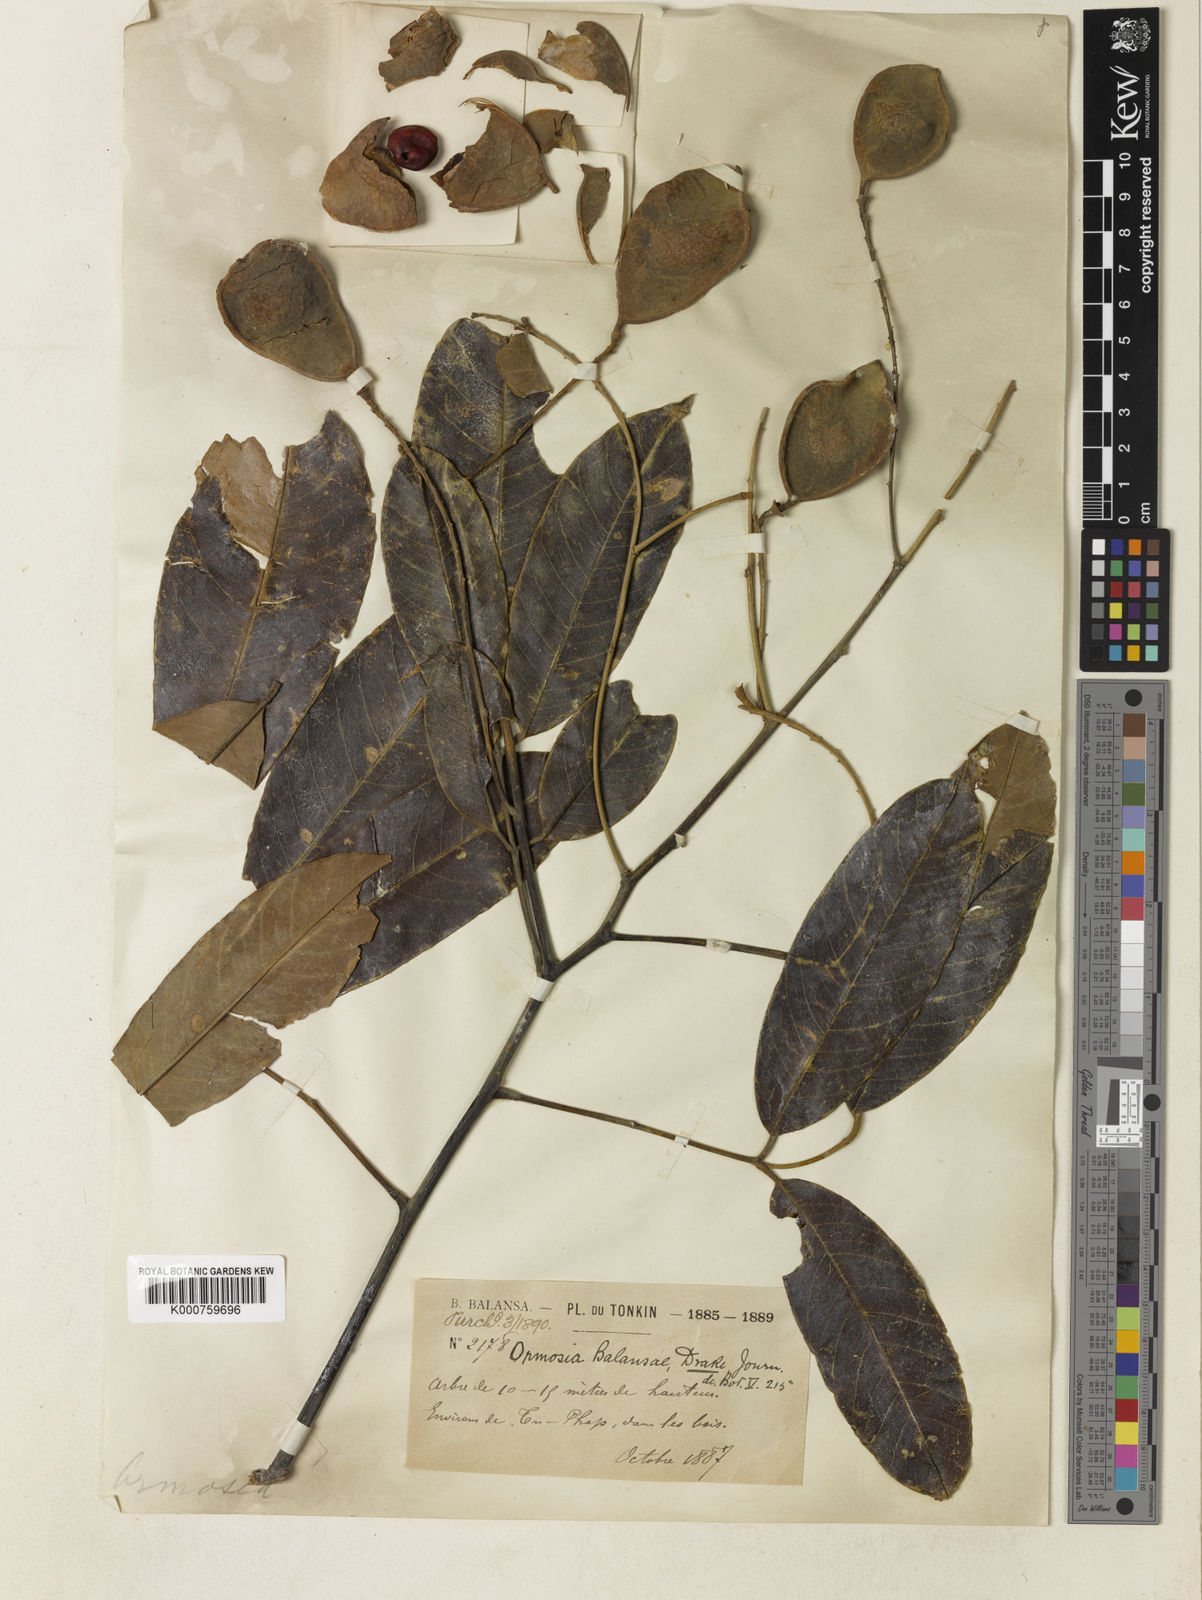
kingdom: Plantae
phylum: Tracheophyta
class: Magnoliopsida
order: Fabales
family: Fabaceae
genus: Ormosia
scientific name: Ormosia balansae
